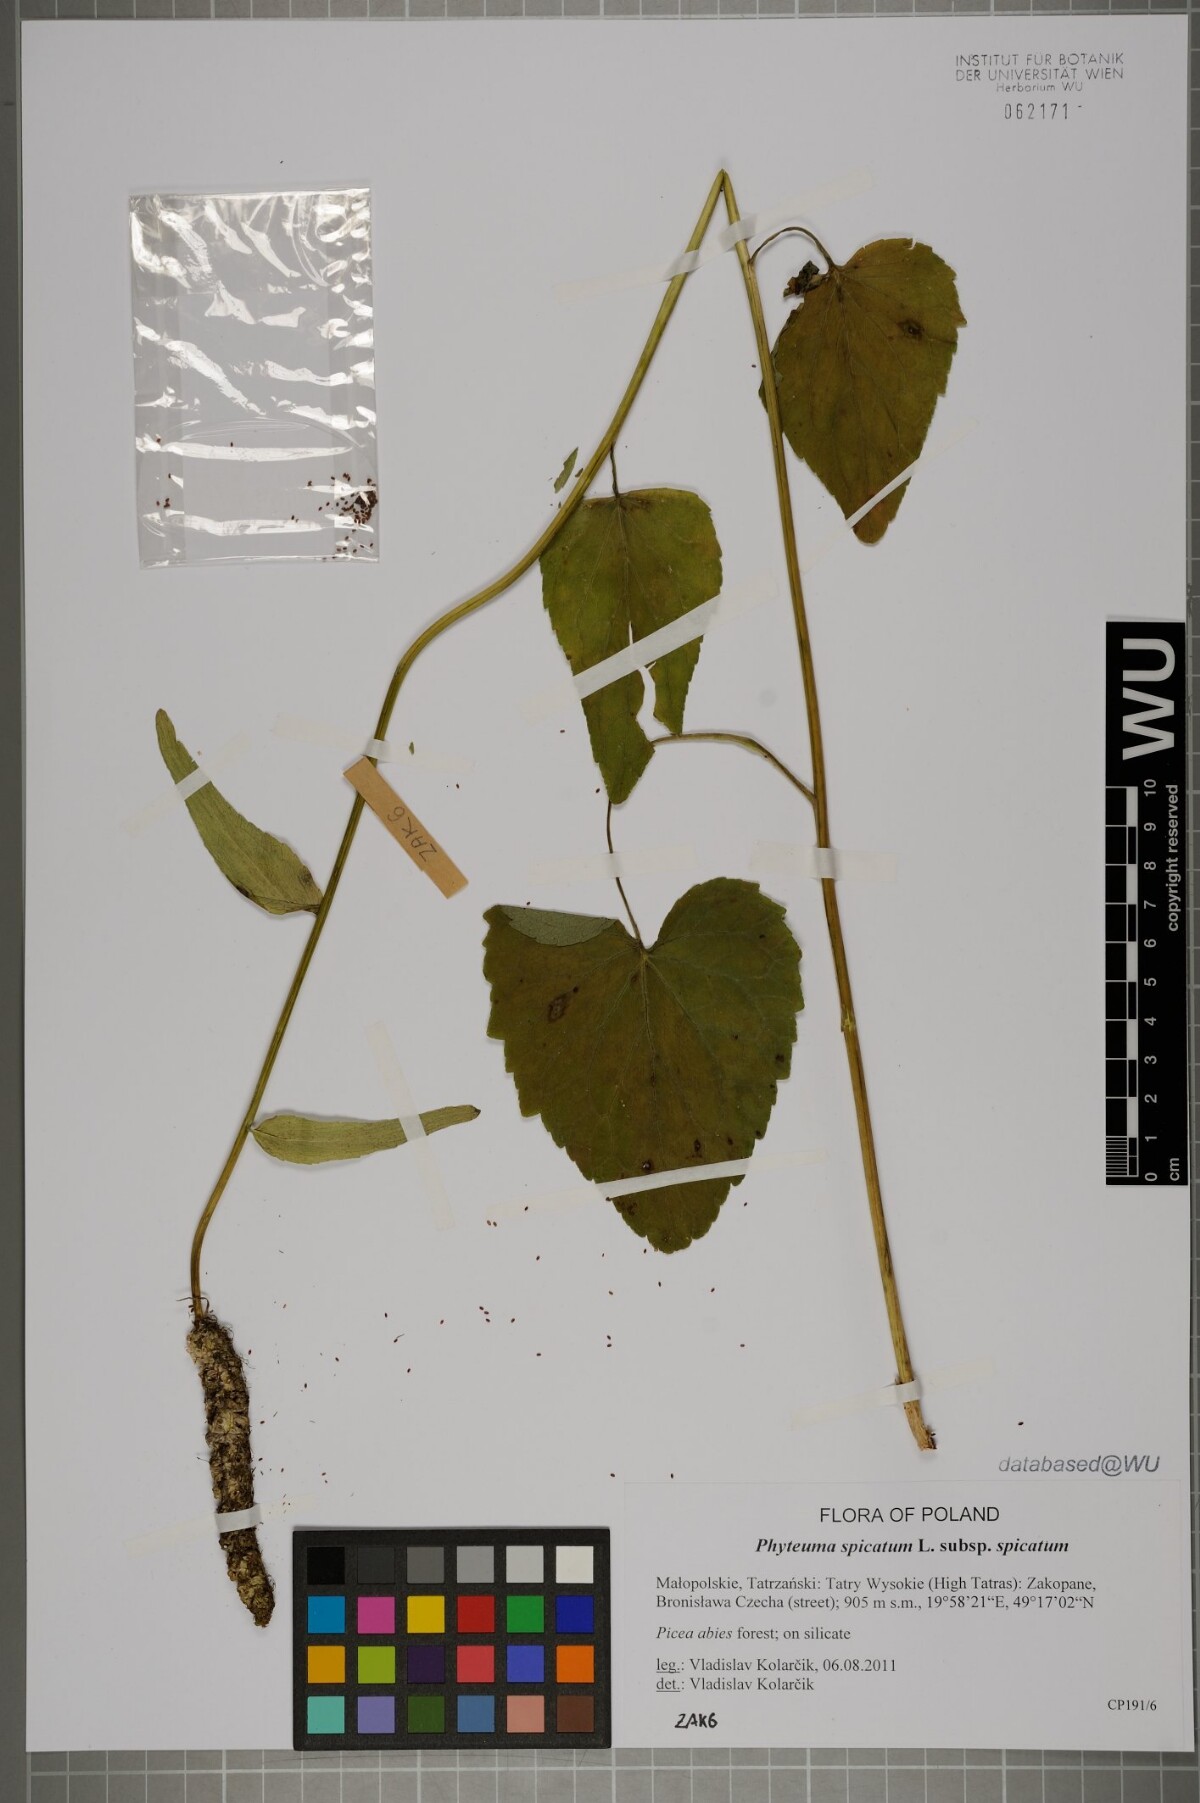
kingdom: Plantae
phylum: Tracheophyta
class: Magnoliopsida
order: Asterales
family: Campanulaceae
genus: Phyteuma
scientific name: Phyteuma spicatum
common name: Spiked rampion
